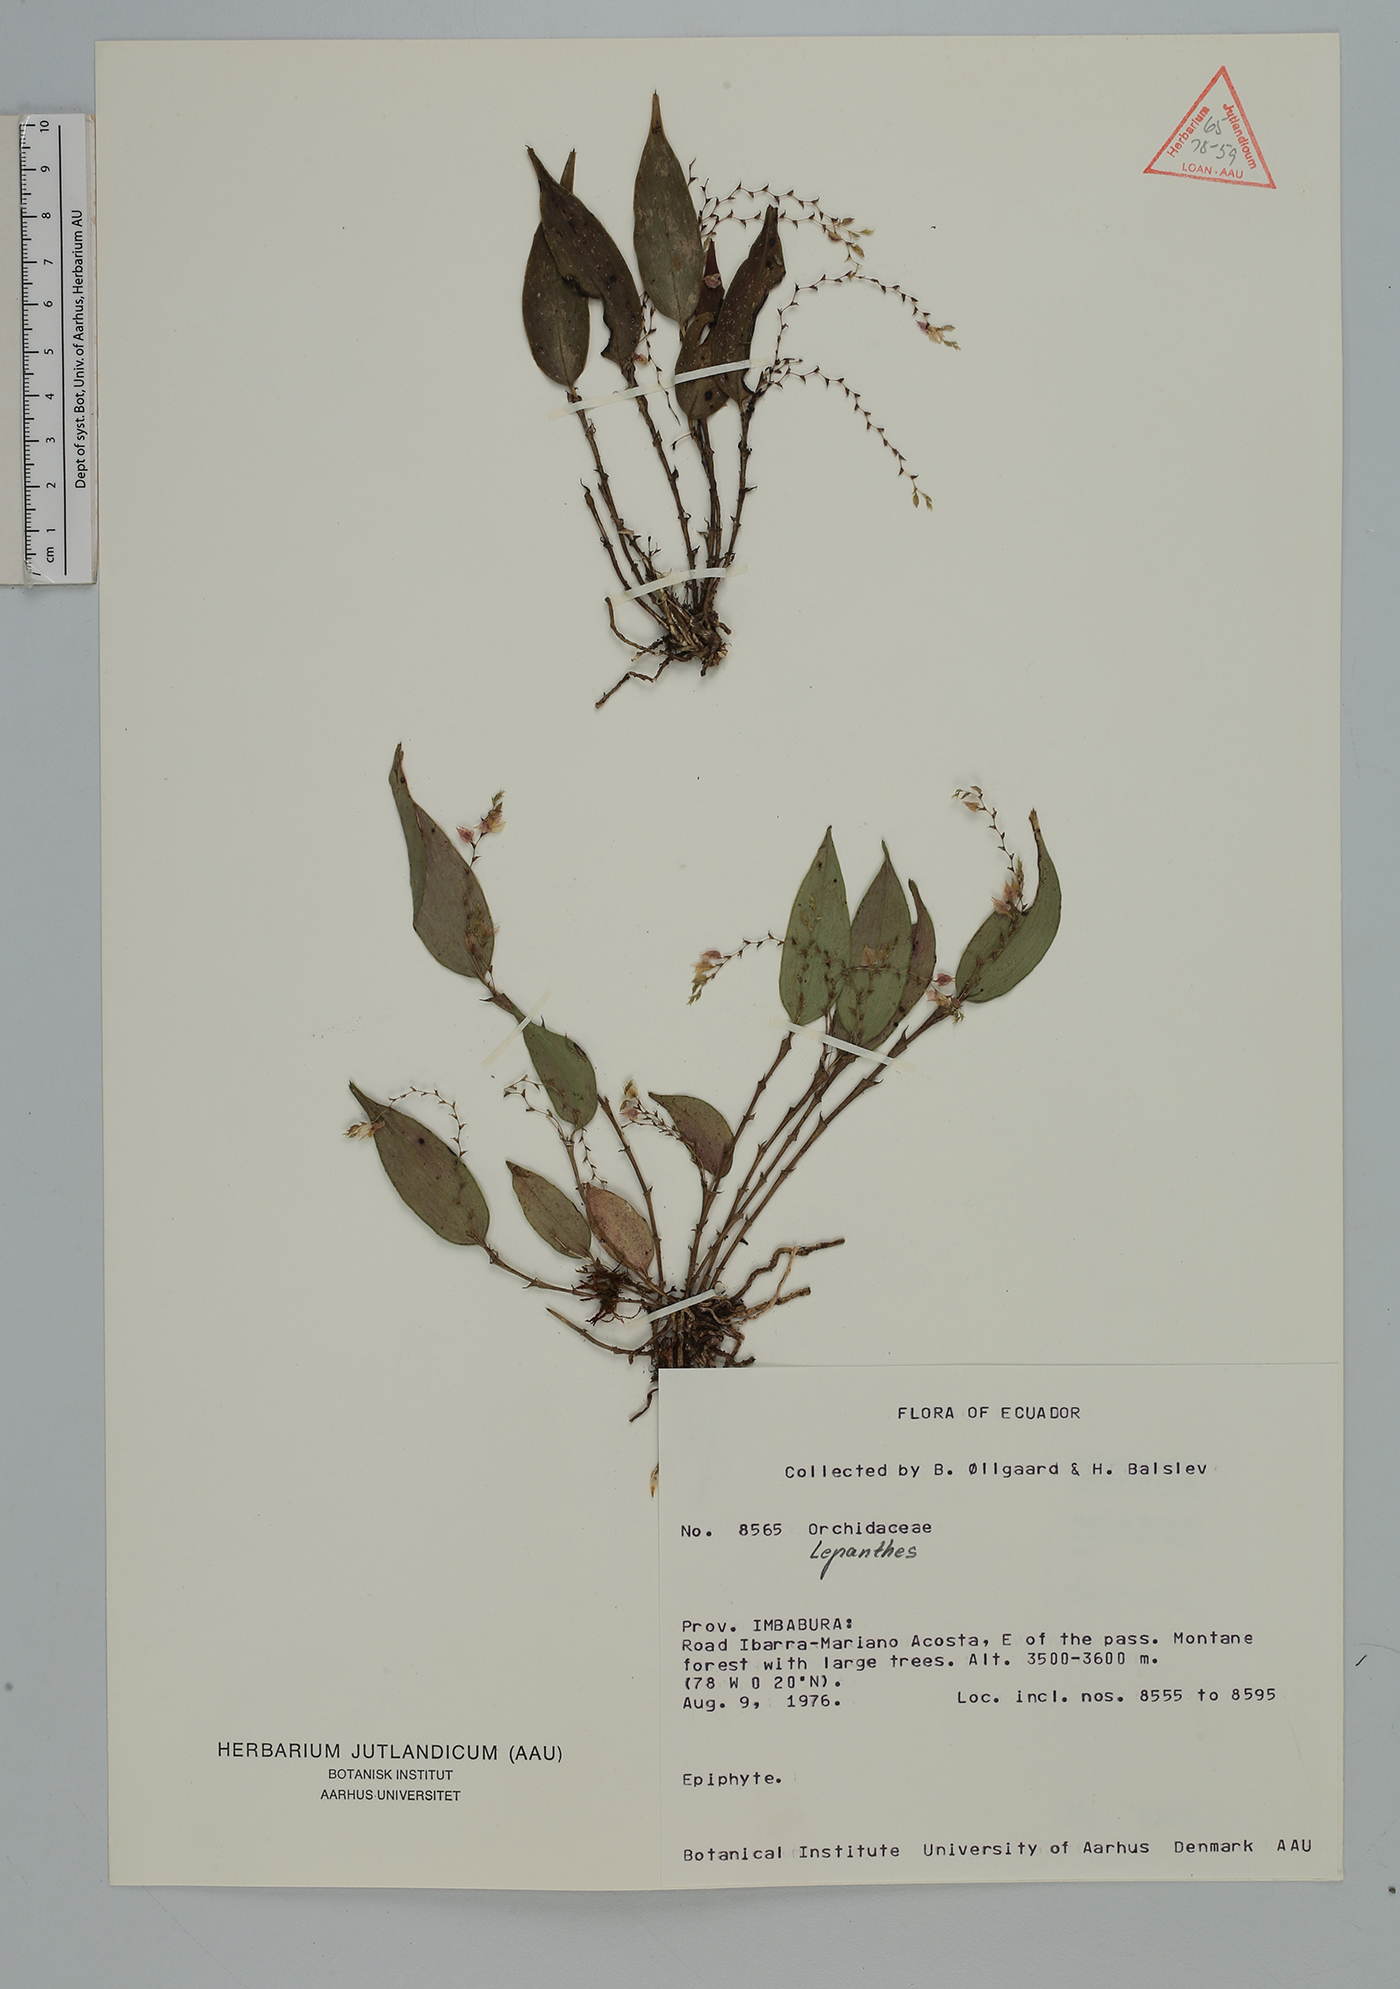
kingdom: Plantae
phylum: Tracheophyta
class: Liliopsida
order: Asparagales
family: Orchidaceae
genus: Lepanthes
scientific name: Lepanthes
